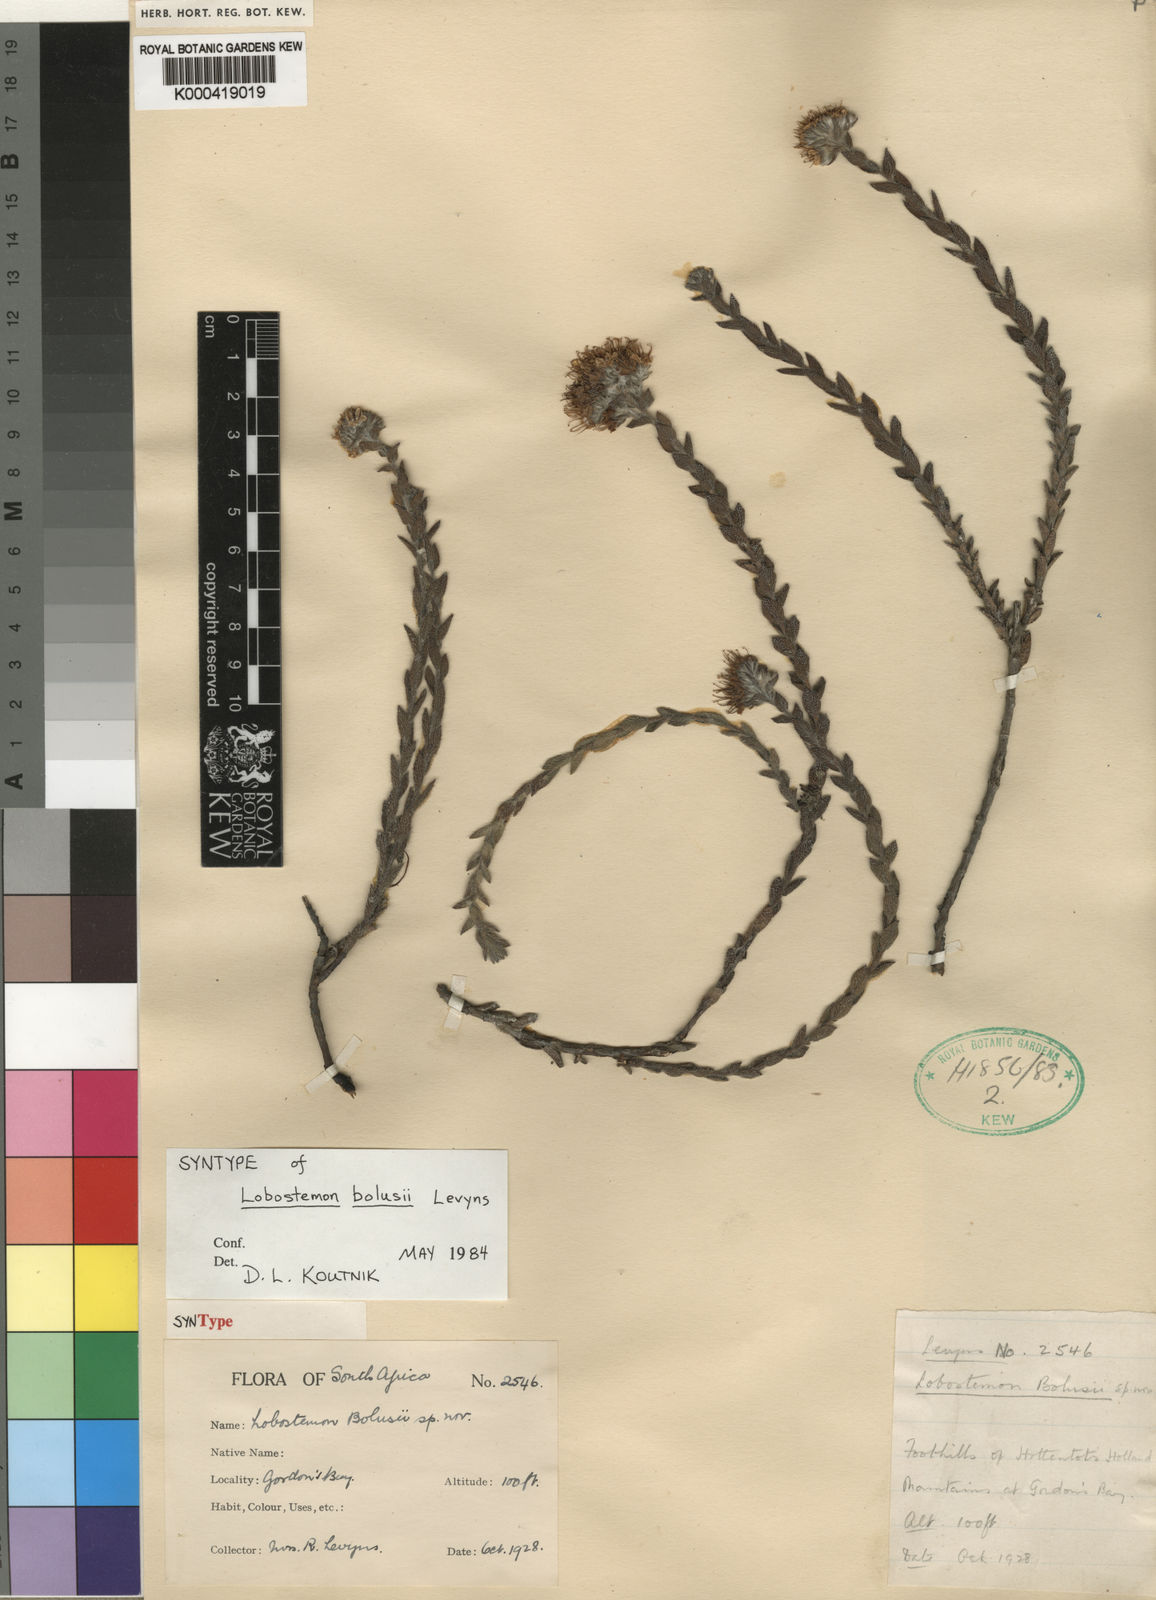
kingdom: Plantae
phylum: Tracheophyta
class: Magnoliopsida
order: Boraginales
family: Boraginaceae
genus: Lobostemon
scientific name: Lobostemon capitatus
